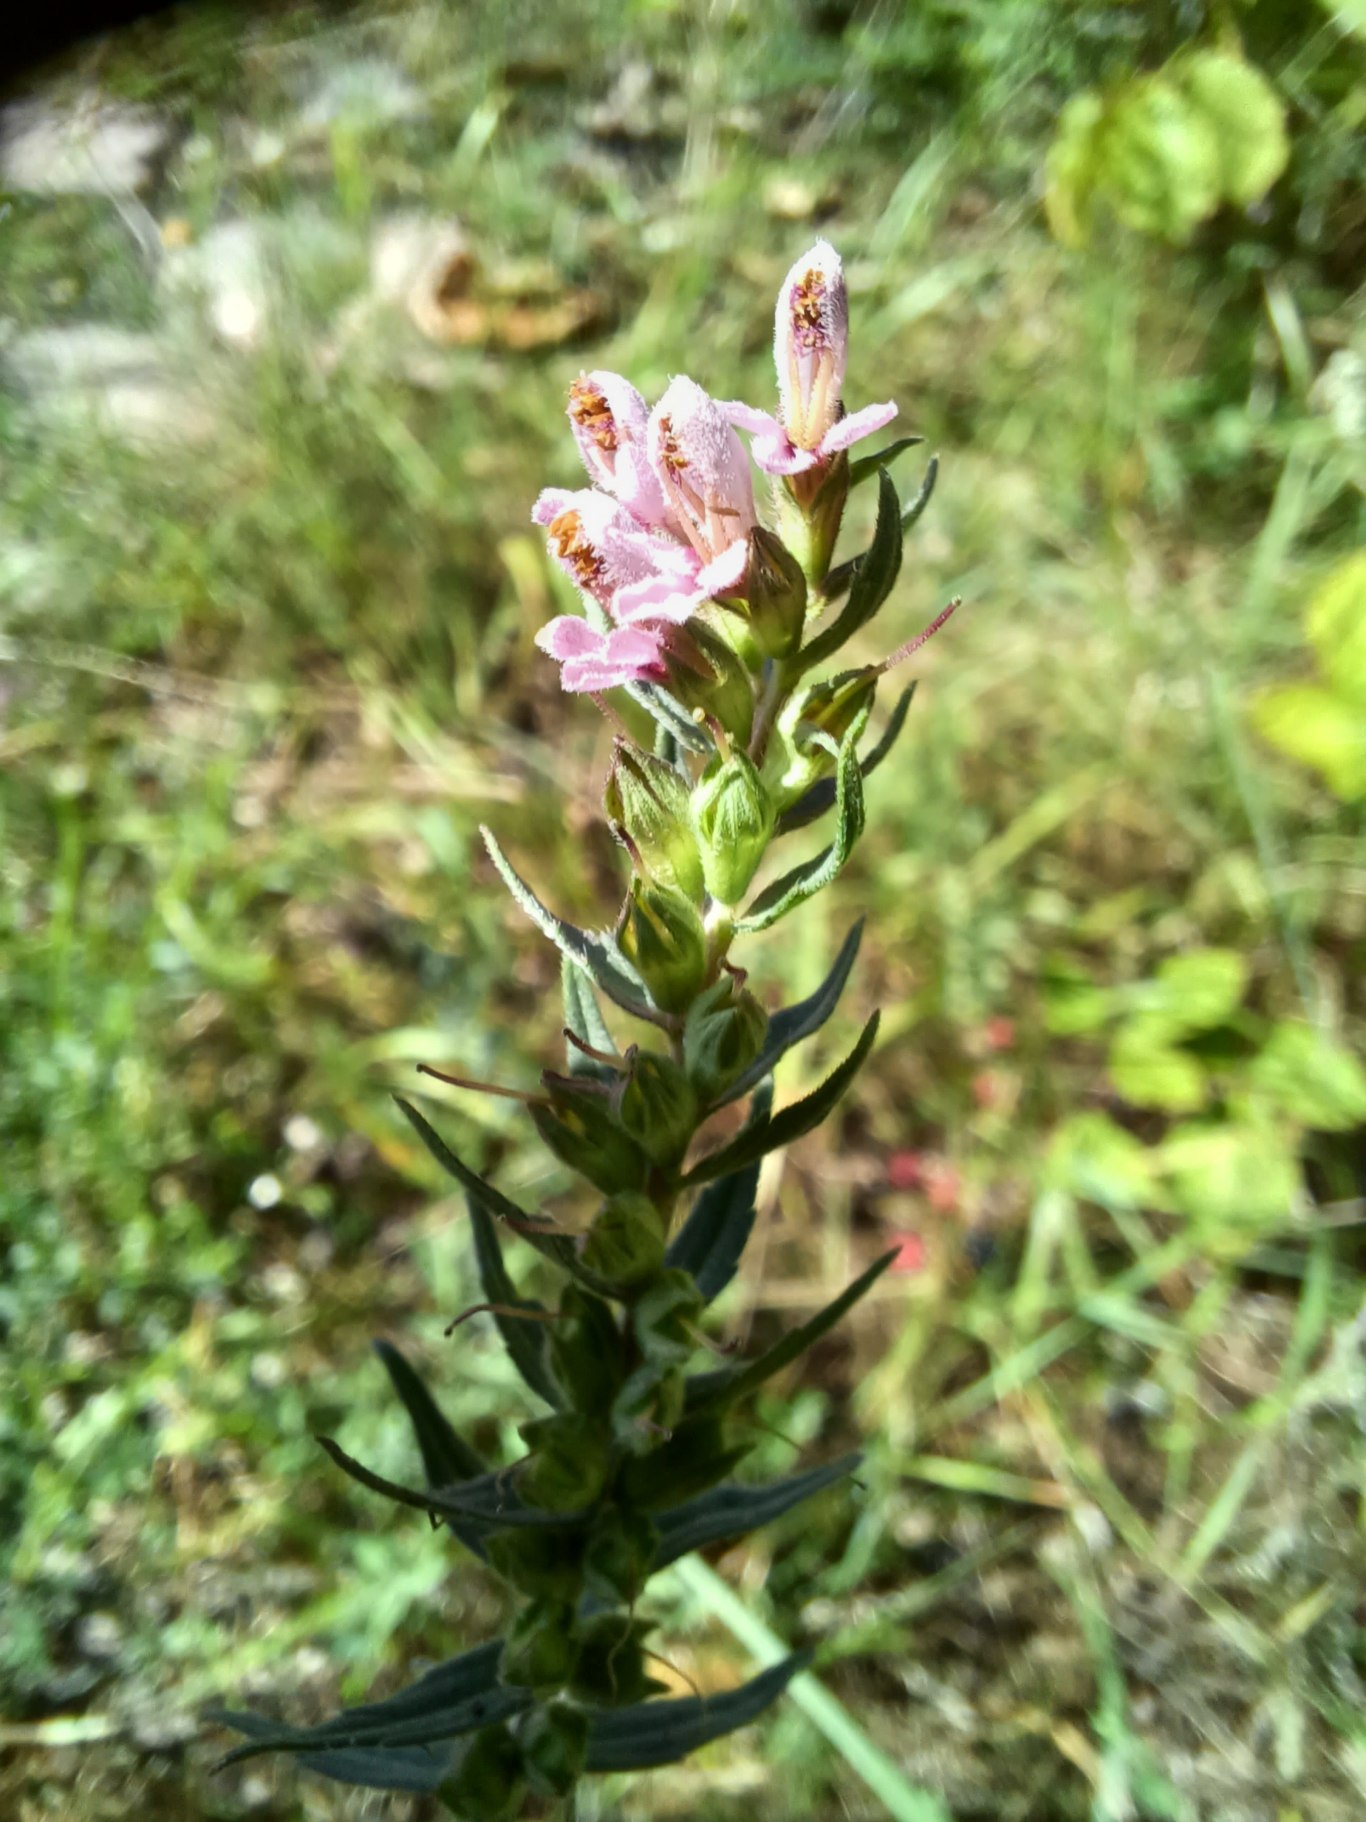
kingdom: Plantae
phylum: Tracheophyta
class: Magnoliopsida
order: Lamiales
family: Orobanchaceae
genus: Odontites
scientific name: Odontites vulgaris
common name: Høst-rødtop
